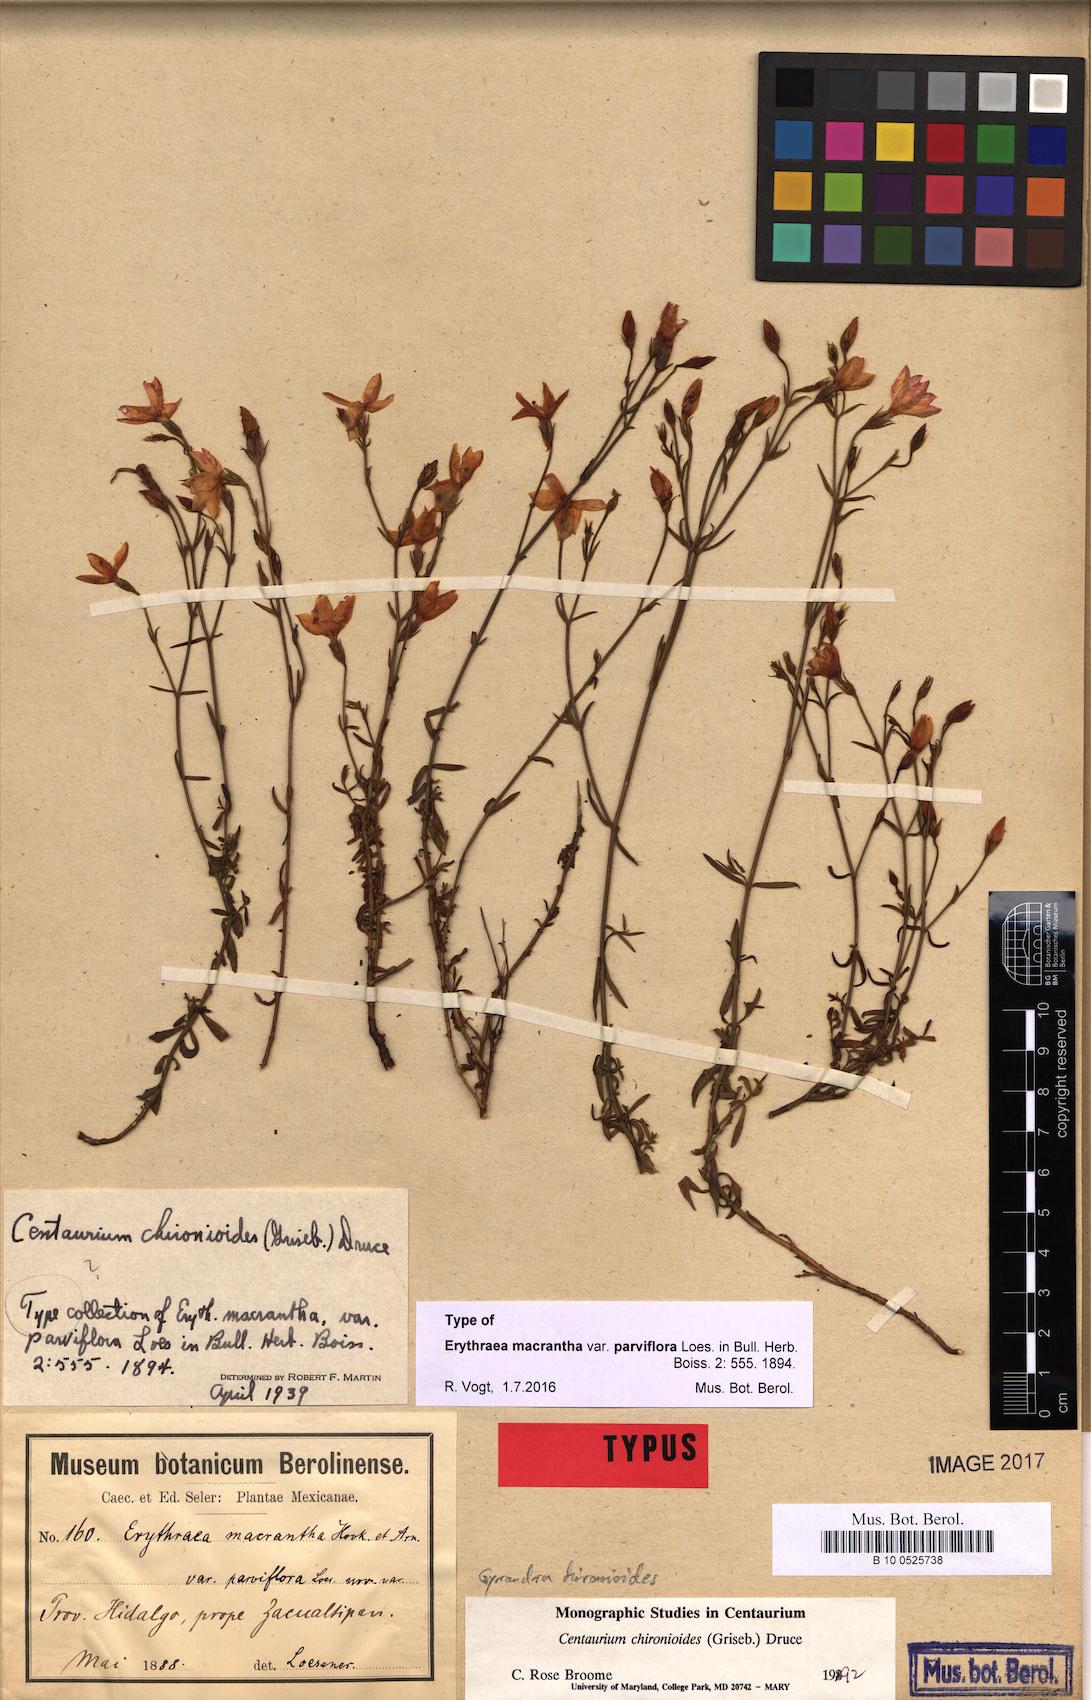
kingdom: Plantae
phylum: Tracheophyta
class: Magnoliopsida
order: Gentianales
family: Gentianaceae
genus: Gyrandra
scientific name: Gyrandra chironioides
